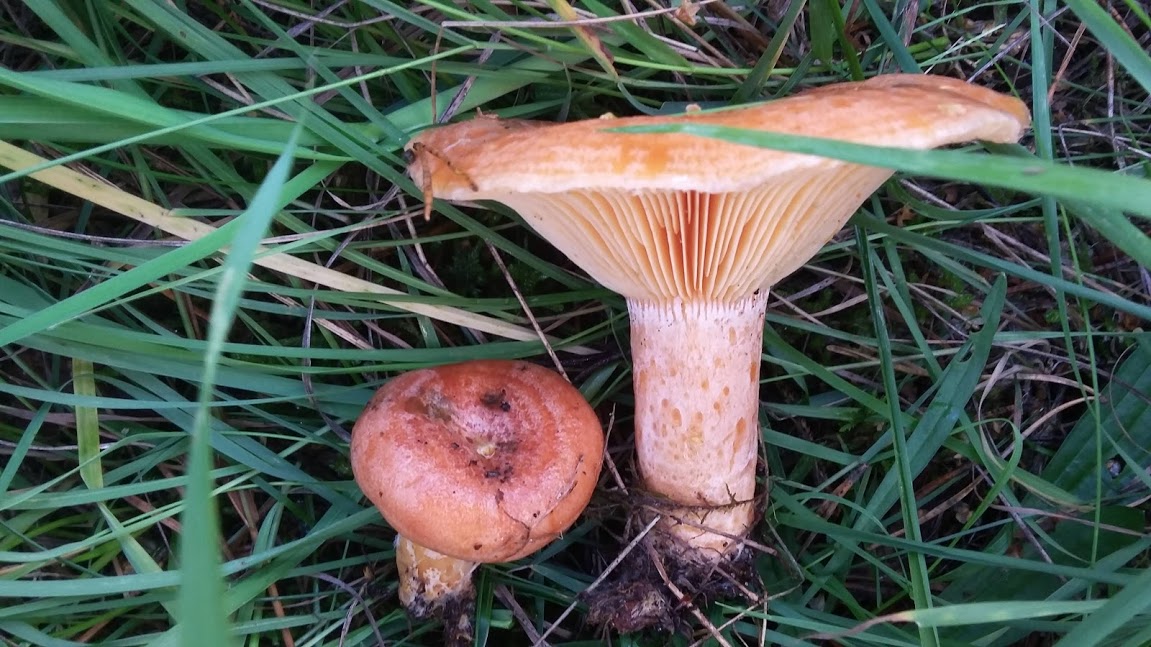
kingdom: Fungi
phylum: Basidiomycota
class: Agaricomycetes
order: Russulales
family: Russulaceae
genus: Lactarius
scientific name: Lactarius deliciosus
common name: velsmagende mælkehat
